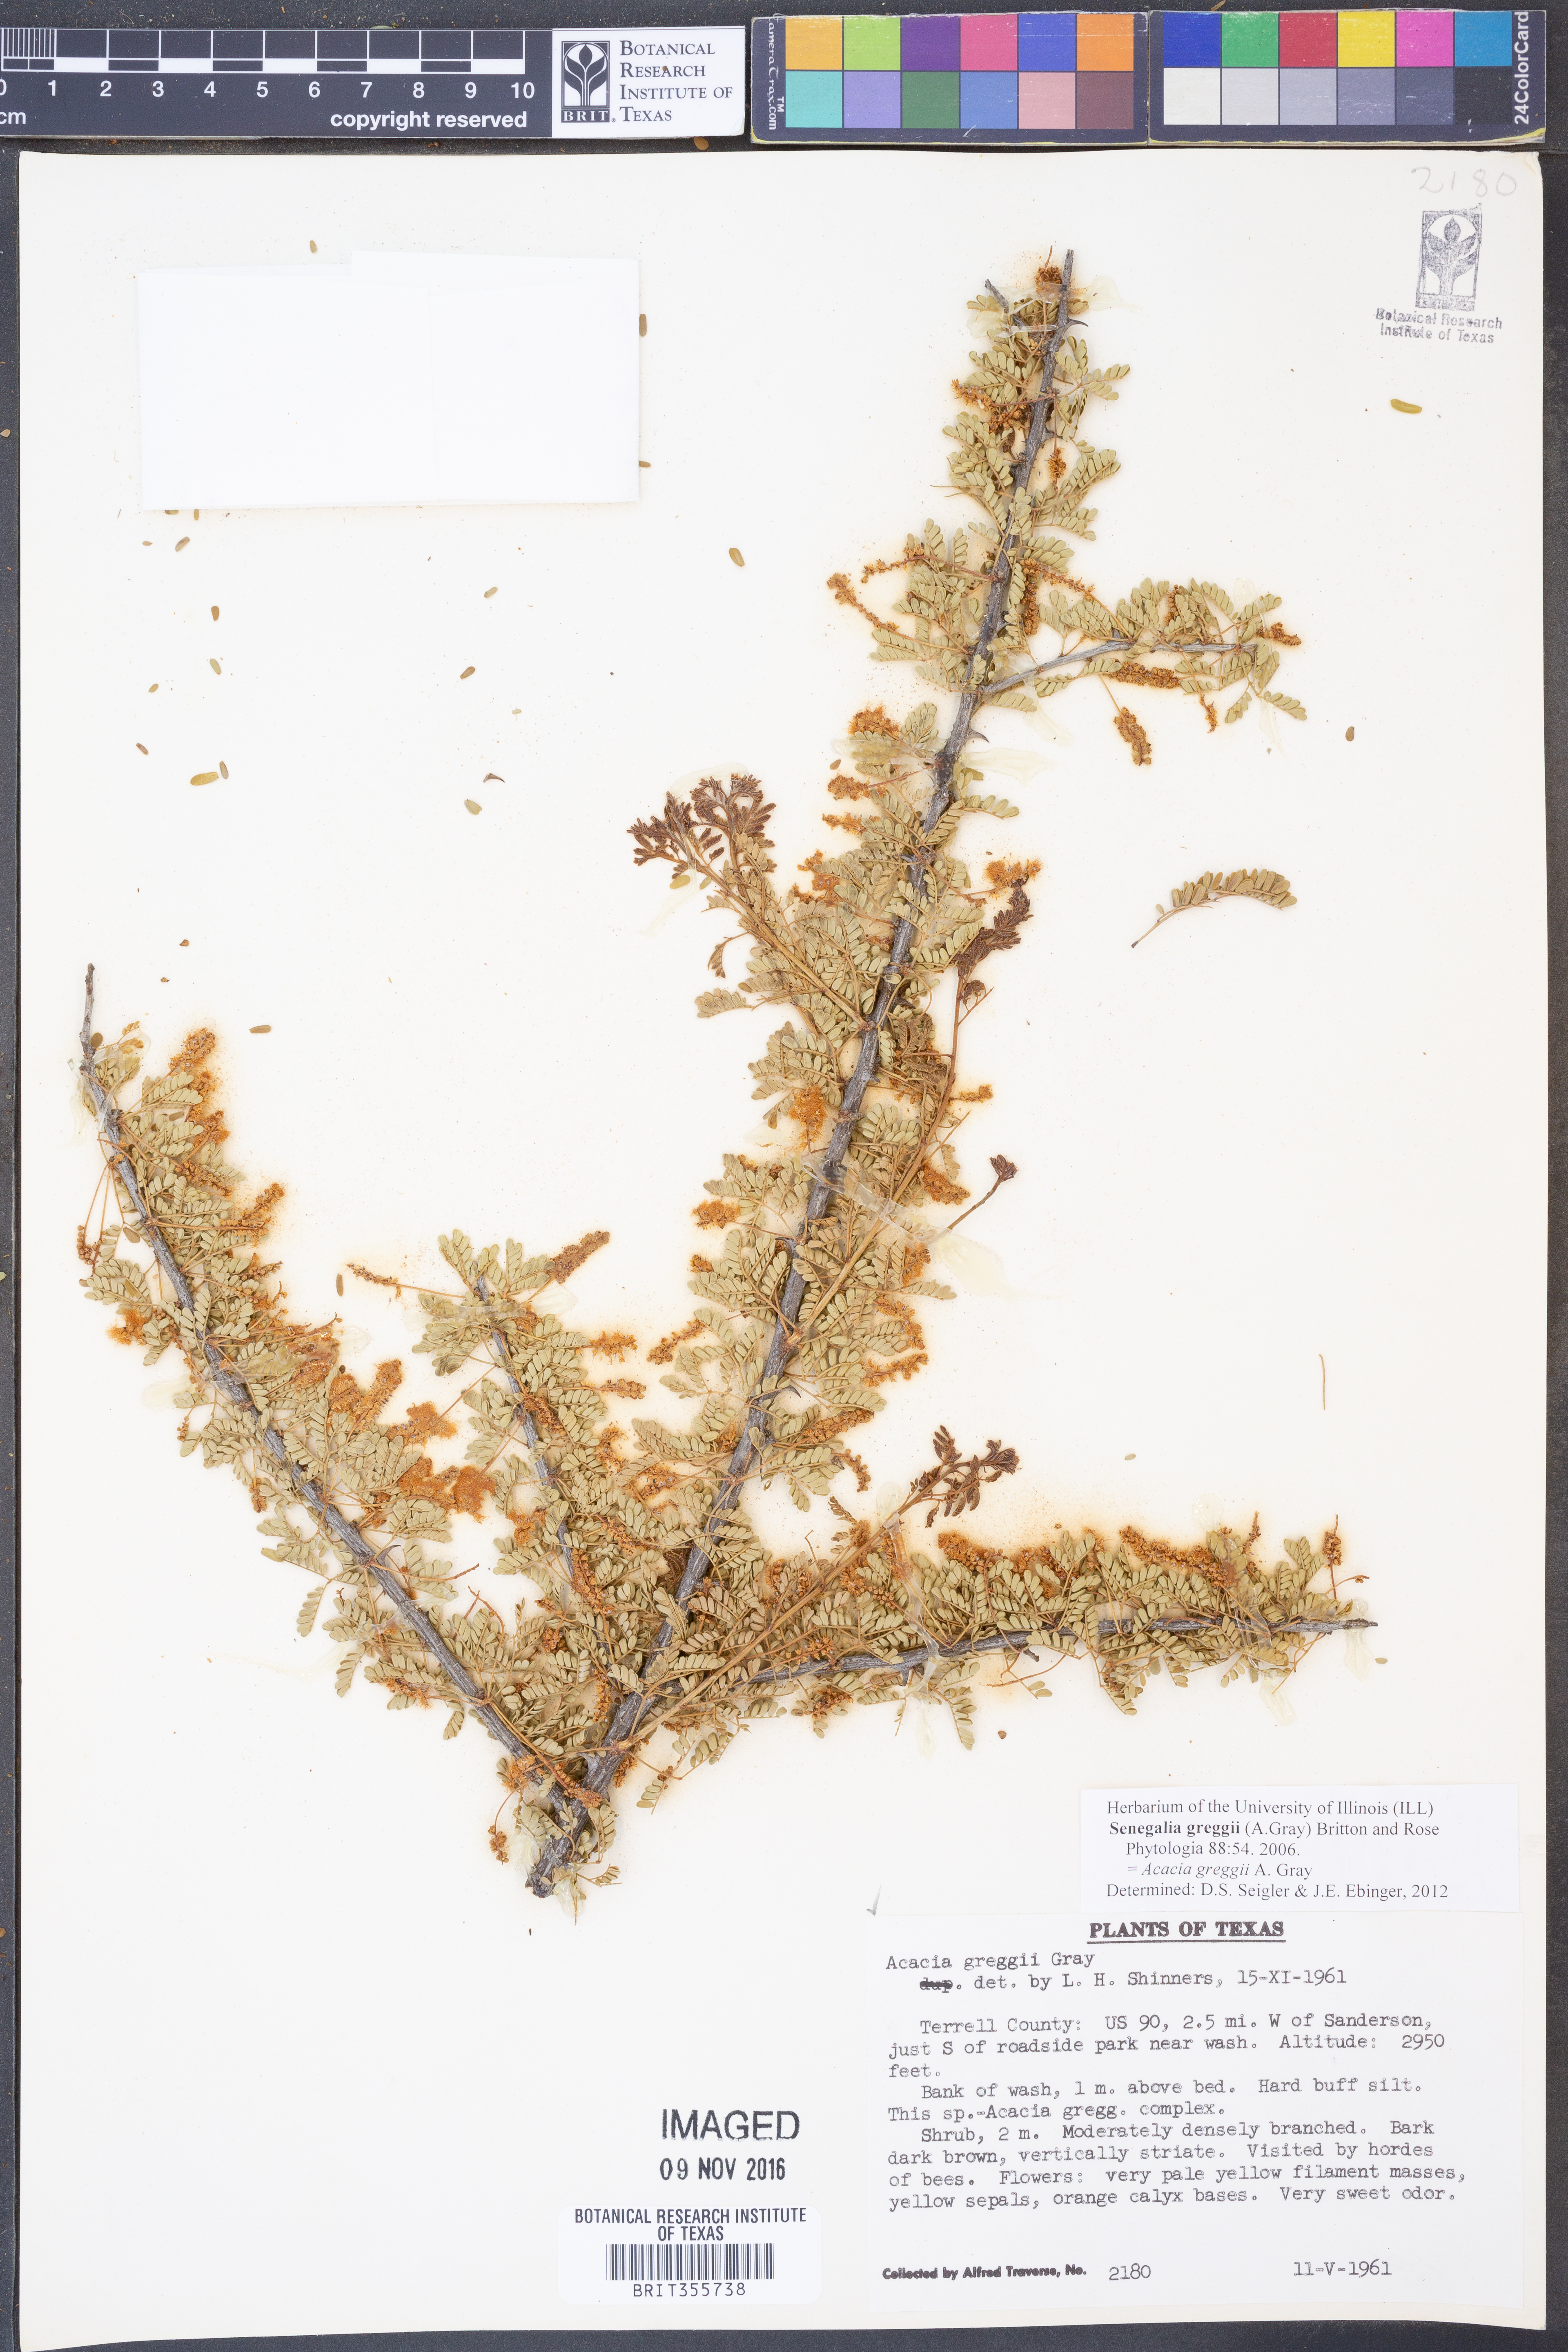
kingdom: Plantae
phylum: Tracheophyta
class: Magnoliopsida
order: Fabales
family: Fabaceae
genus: Senegalia
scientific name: Senegalia greggii
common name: Texas-mimosa
